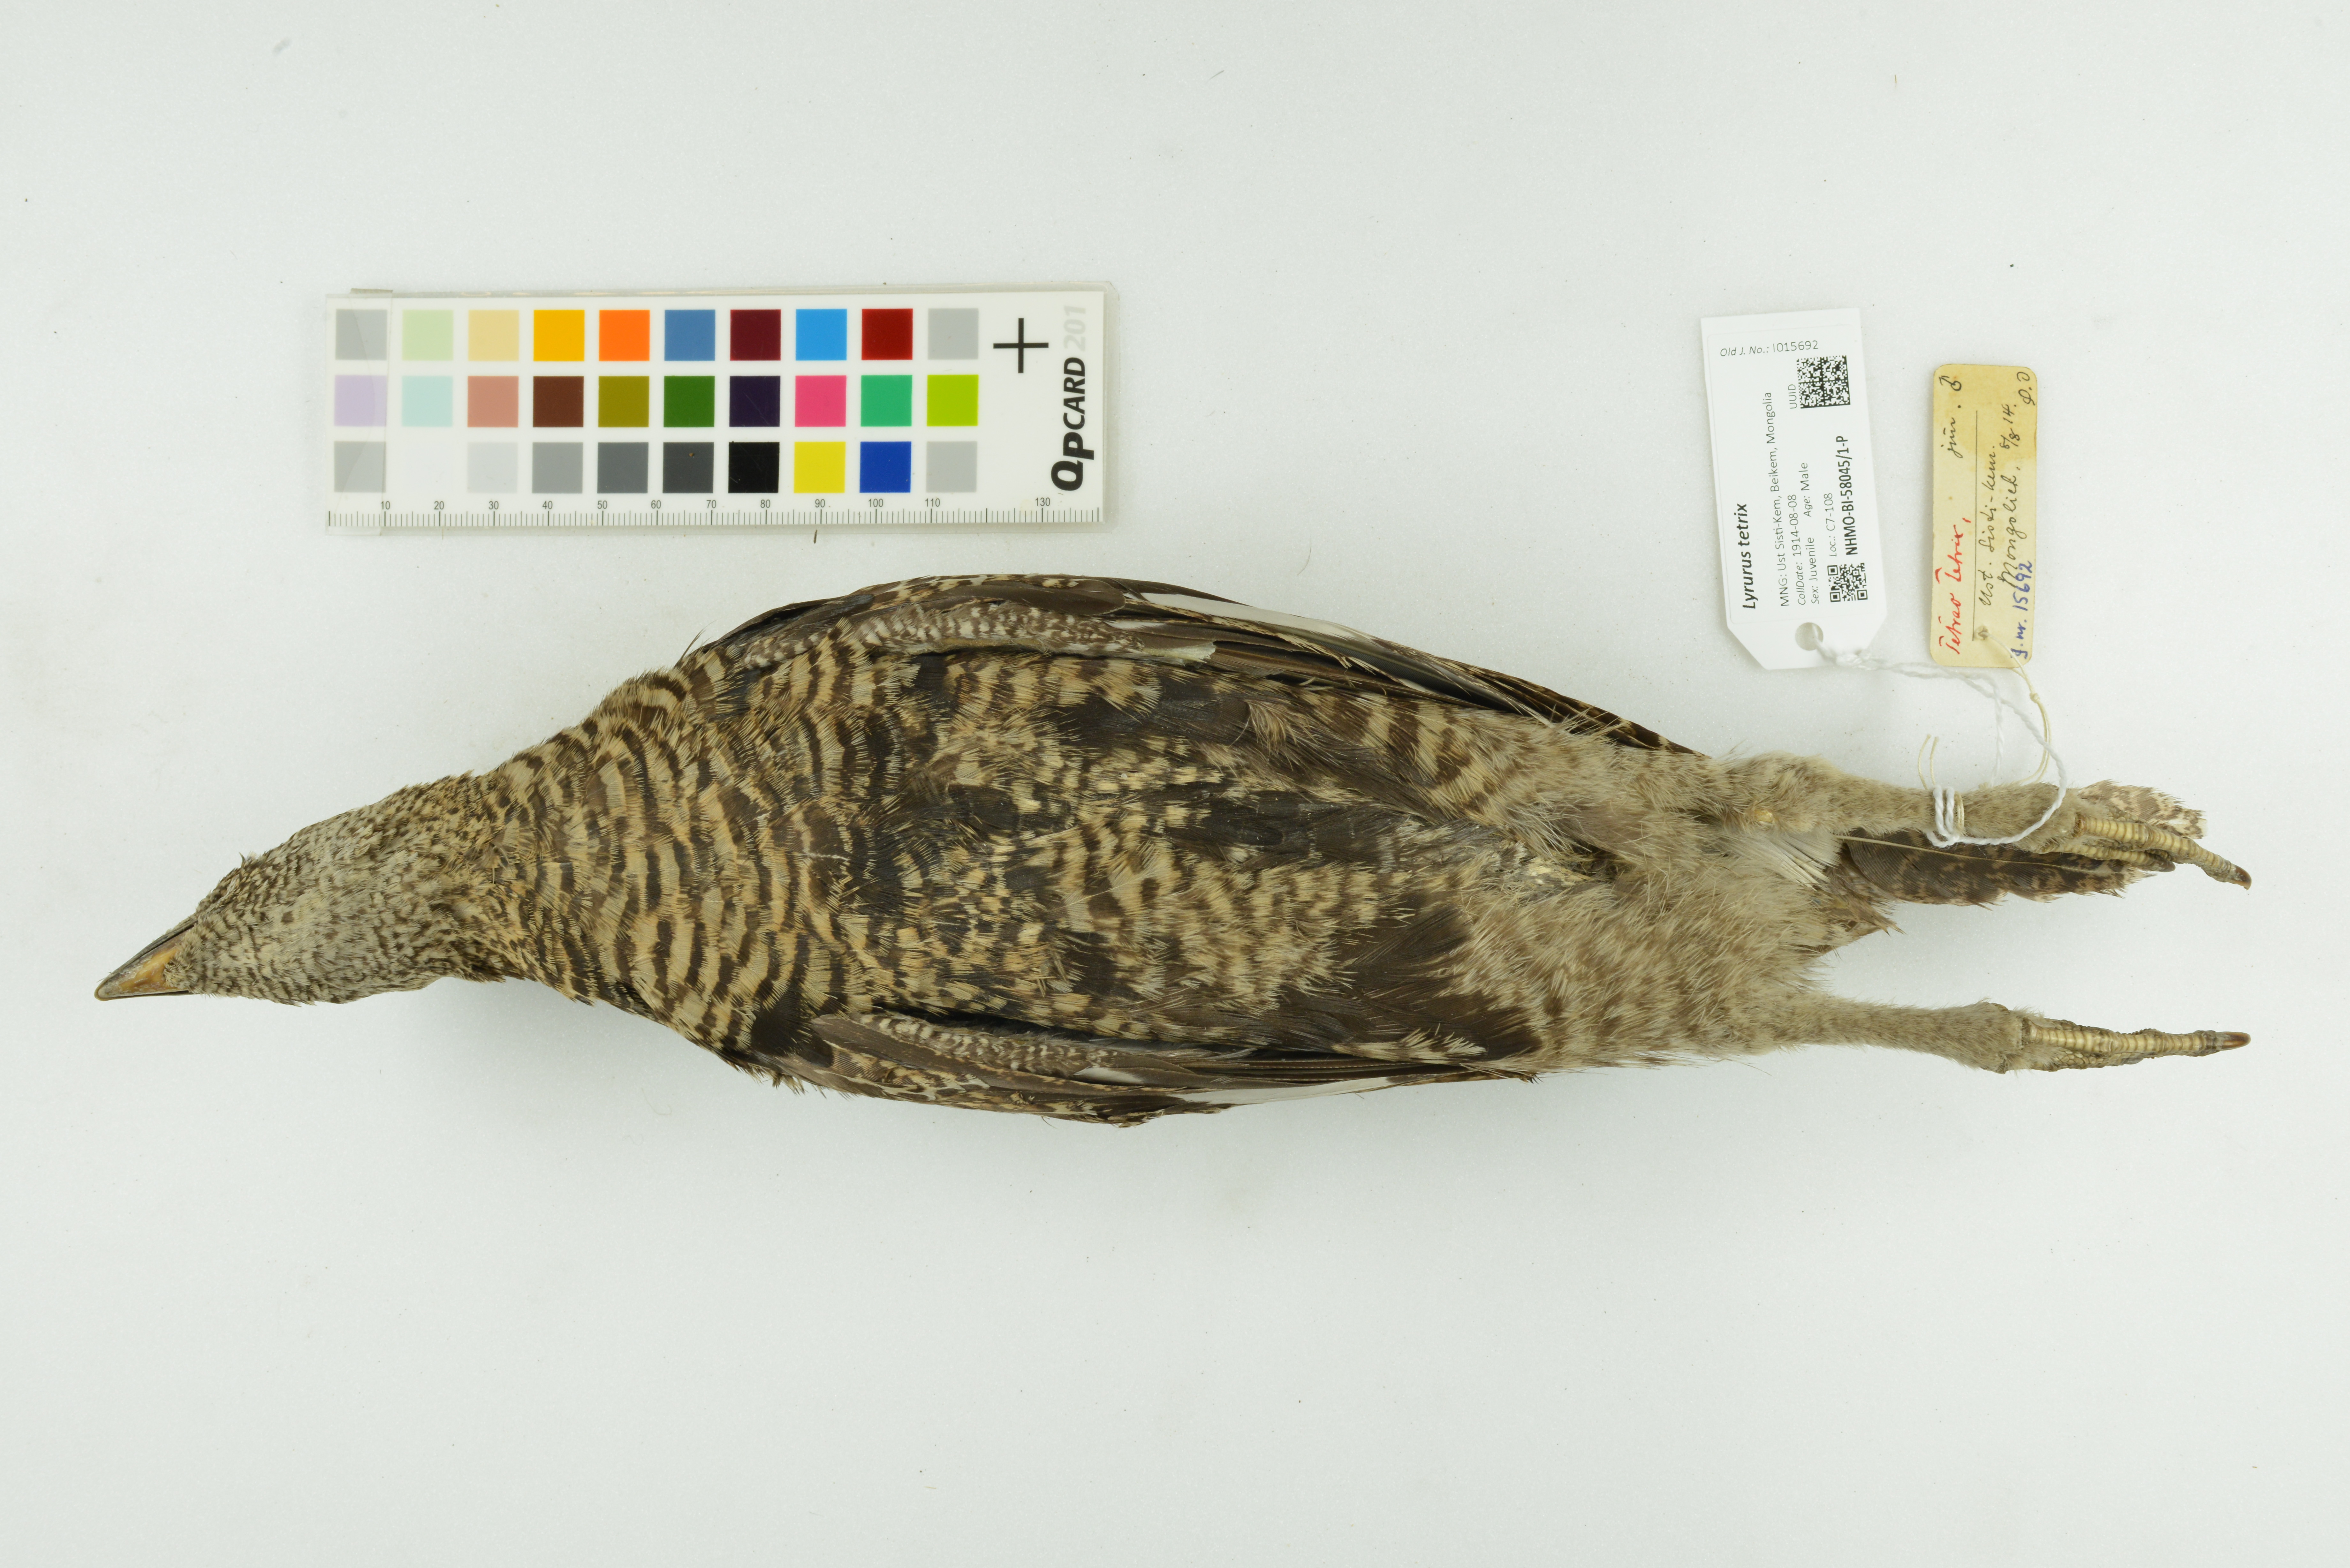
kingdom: Animalia
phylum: Chordata
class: Aves
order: Galliformes
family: Phasianidae
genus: Lyrurus
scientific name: Lyrurus tetrix
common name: Black grouse
